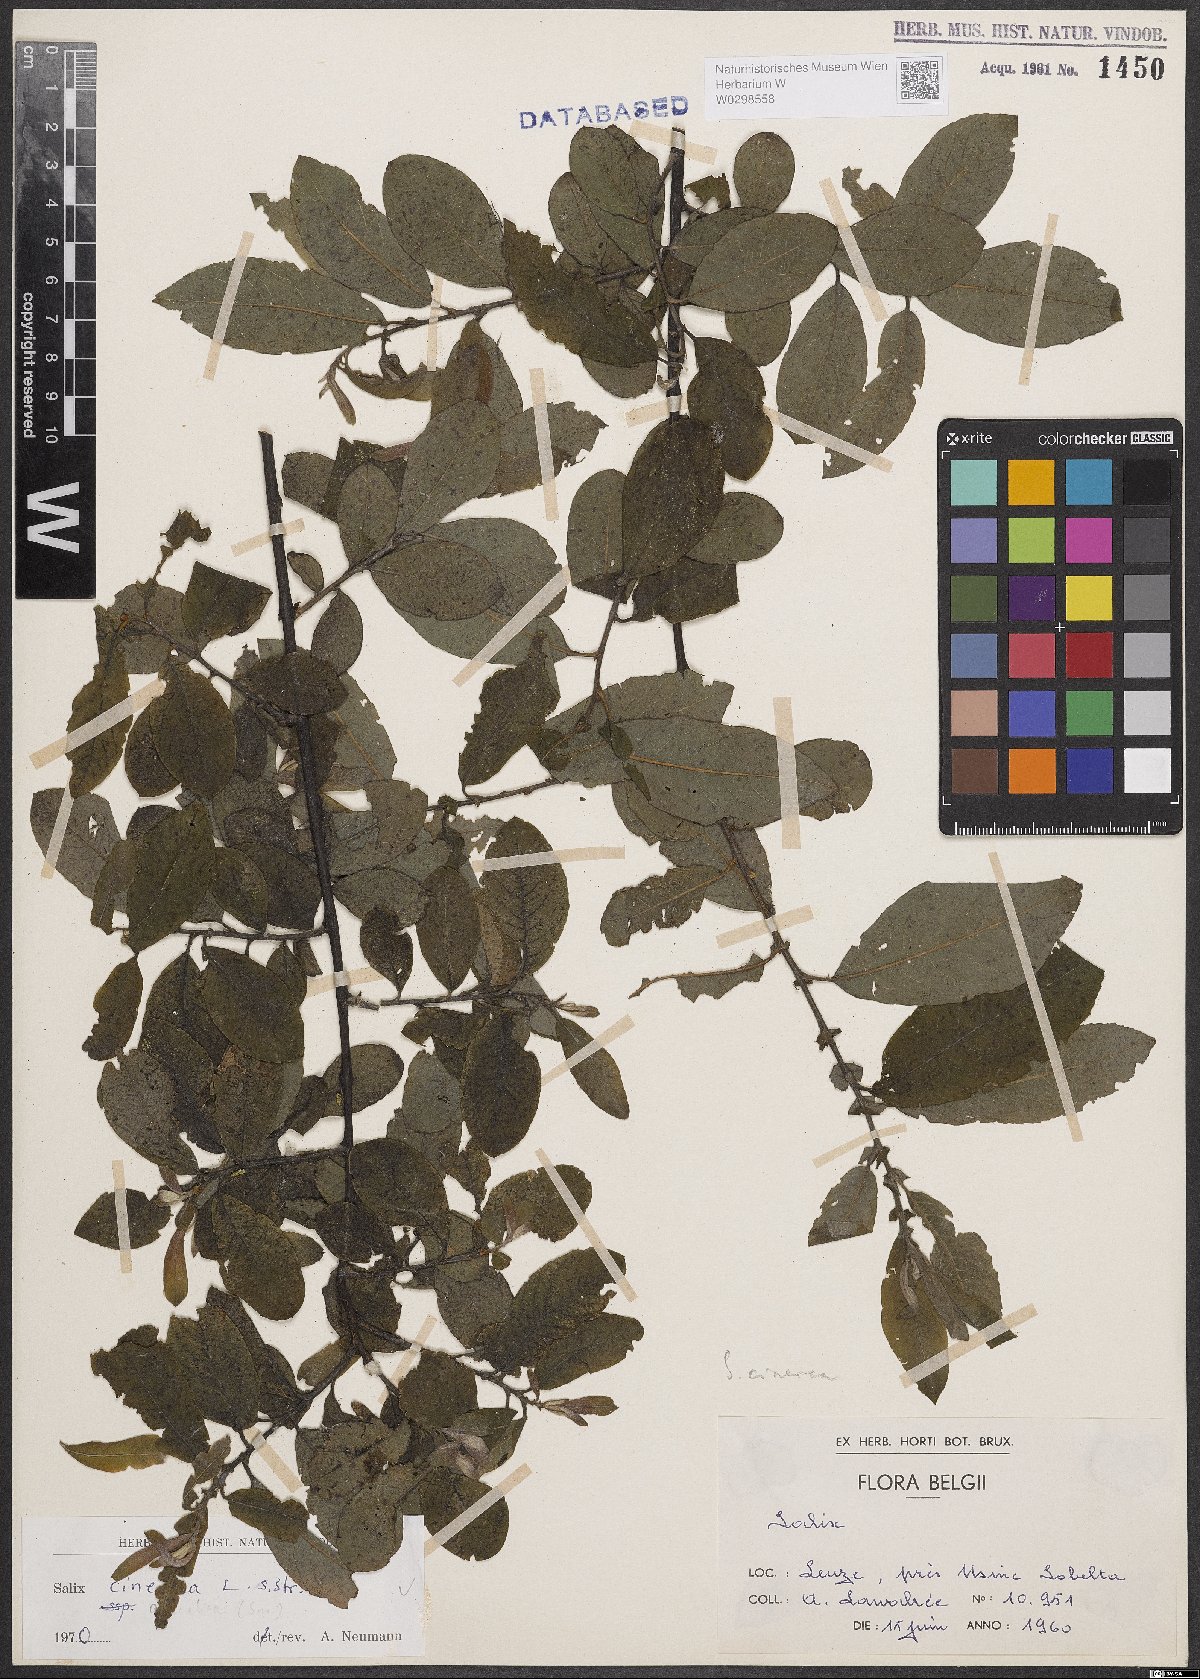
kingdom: Plantae
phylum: Tracheophyta
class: Magnoliopsida
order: Malpighiales
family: Salicaceae
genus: Salix
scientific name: Salix cinerea
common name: Common sallow
